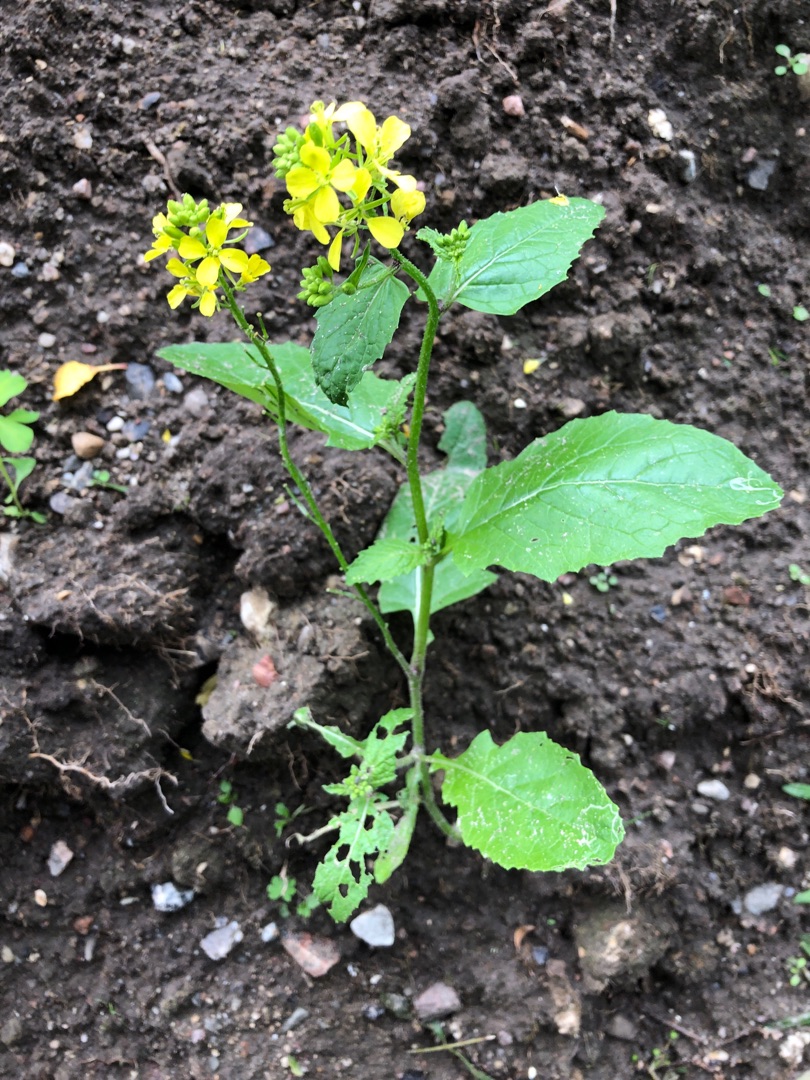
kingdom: Plantae
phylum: Tracheophyta
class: Magnoliopsida
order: Brassicales
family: Brassicaceae
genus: Sinapis
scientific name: Sinapis arvensis
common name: Ager-sennep
